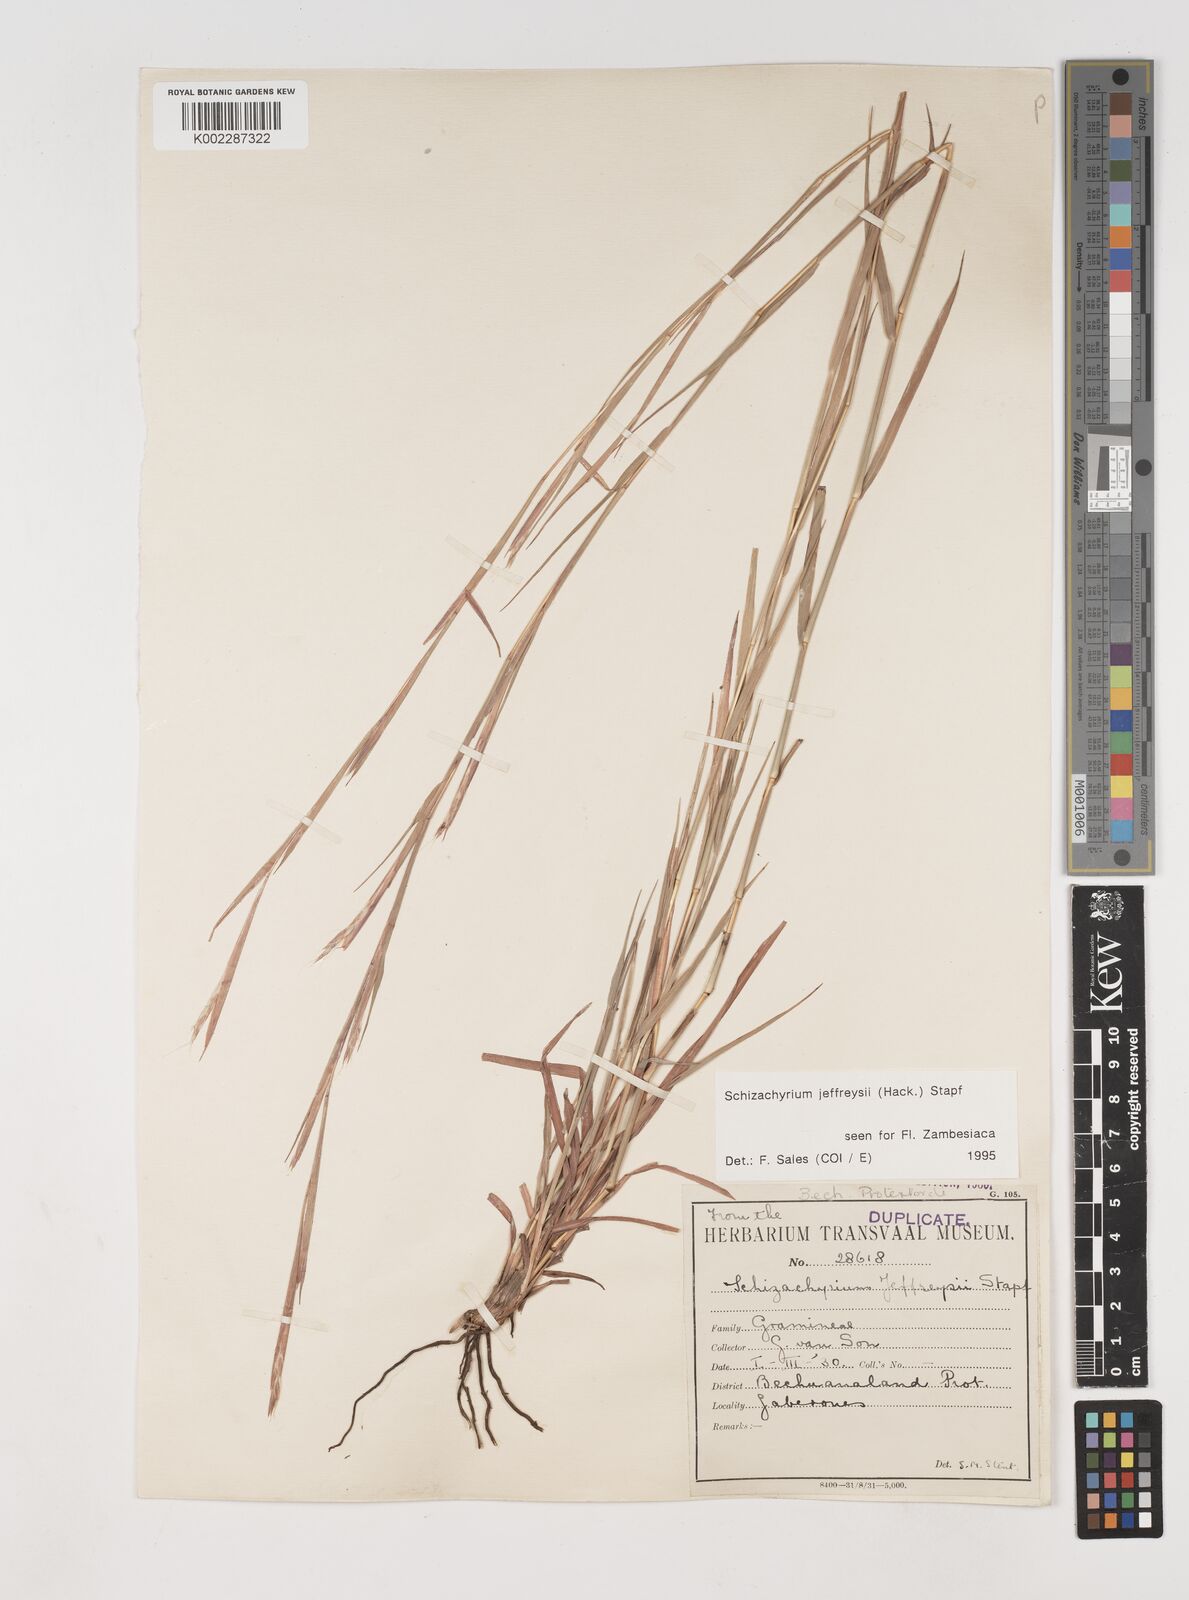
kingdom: Plantae
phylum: Tracheophyta
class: Liliopsida
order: Poales
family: Poaceae
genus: Schizachyrium
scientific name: Schizachyrium jeffreysii
